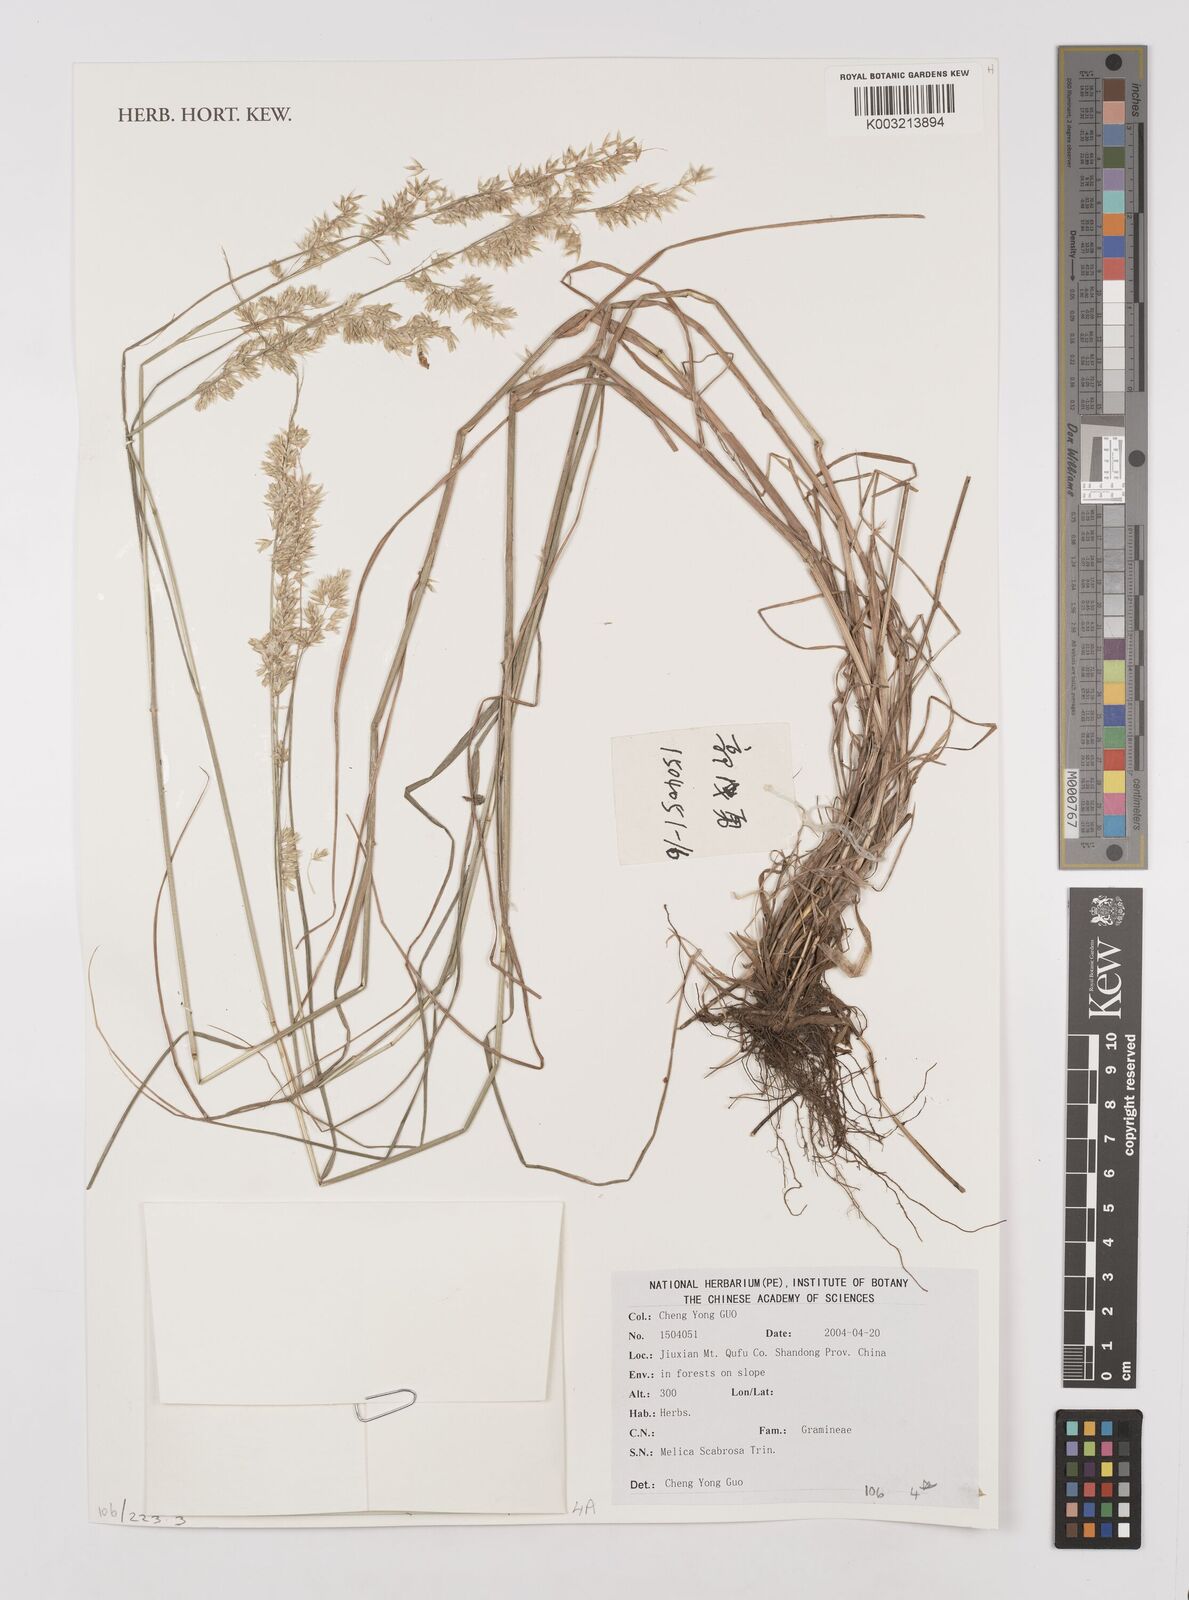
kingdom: Plantae
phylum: Tracheophyta
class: Liliopsida
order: Poales
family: Poaceae
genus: Melica
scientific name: Melica scabrosa
